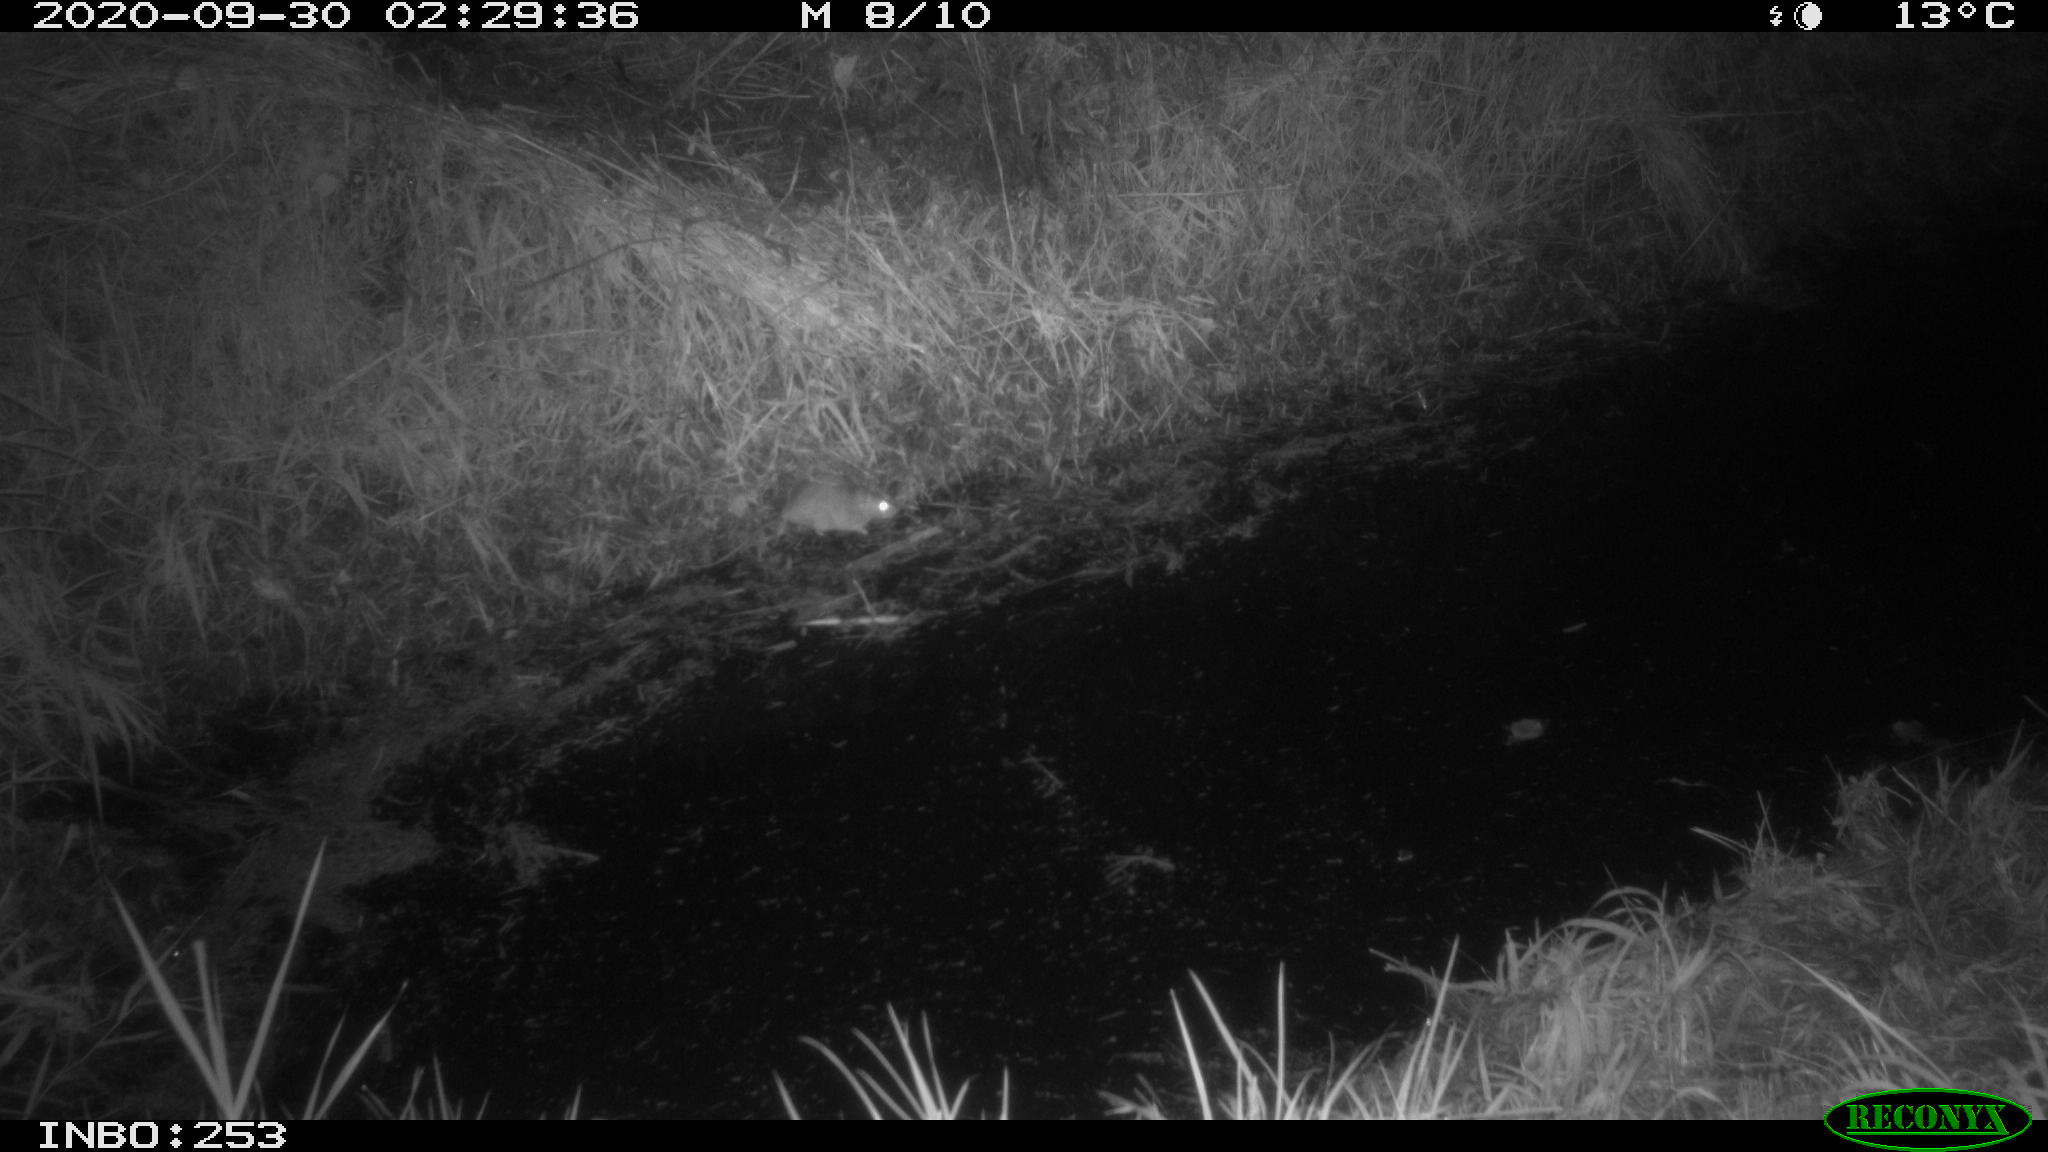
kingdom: Animalia
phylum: Chordata
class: Mammalia
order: Rodentia
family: Muridae
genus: Rattus
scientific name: Rattus norvegicus
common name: Brown rat
